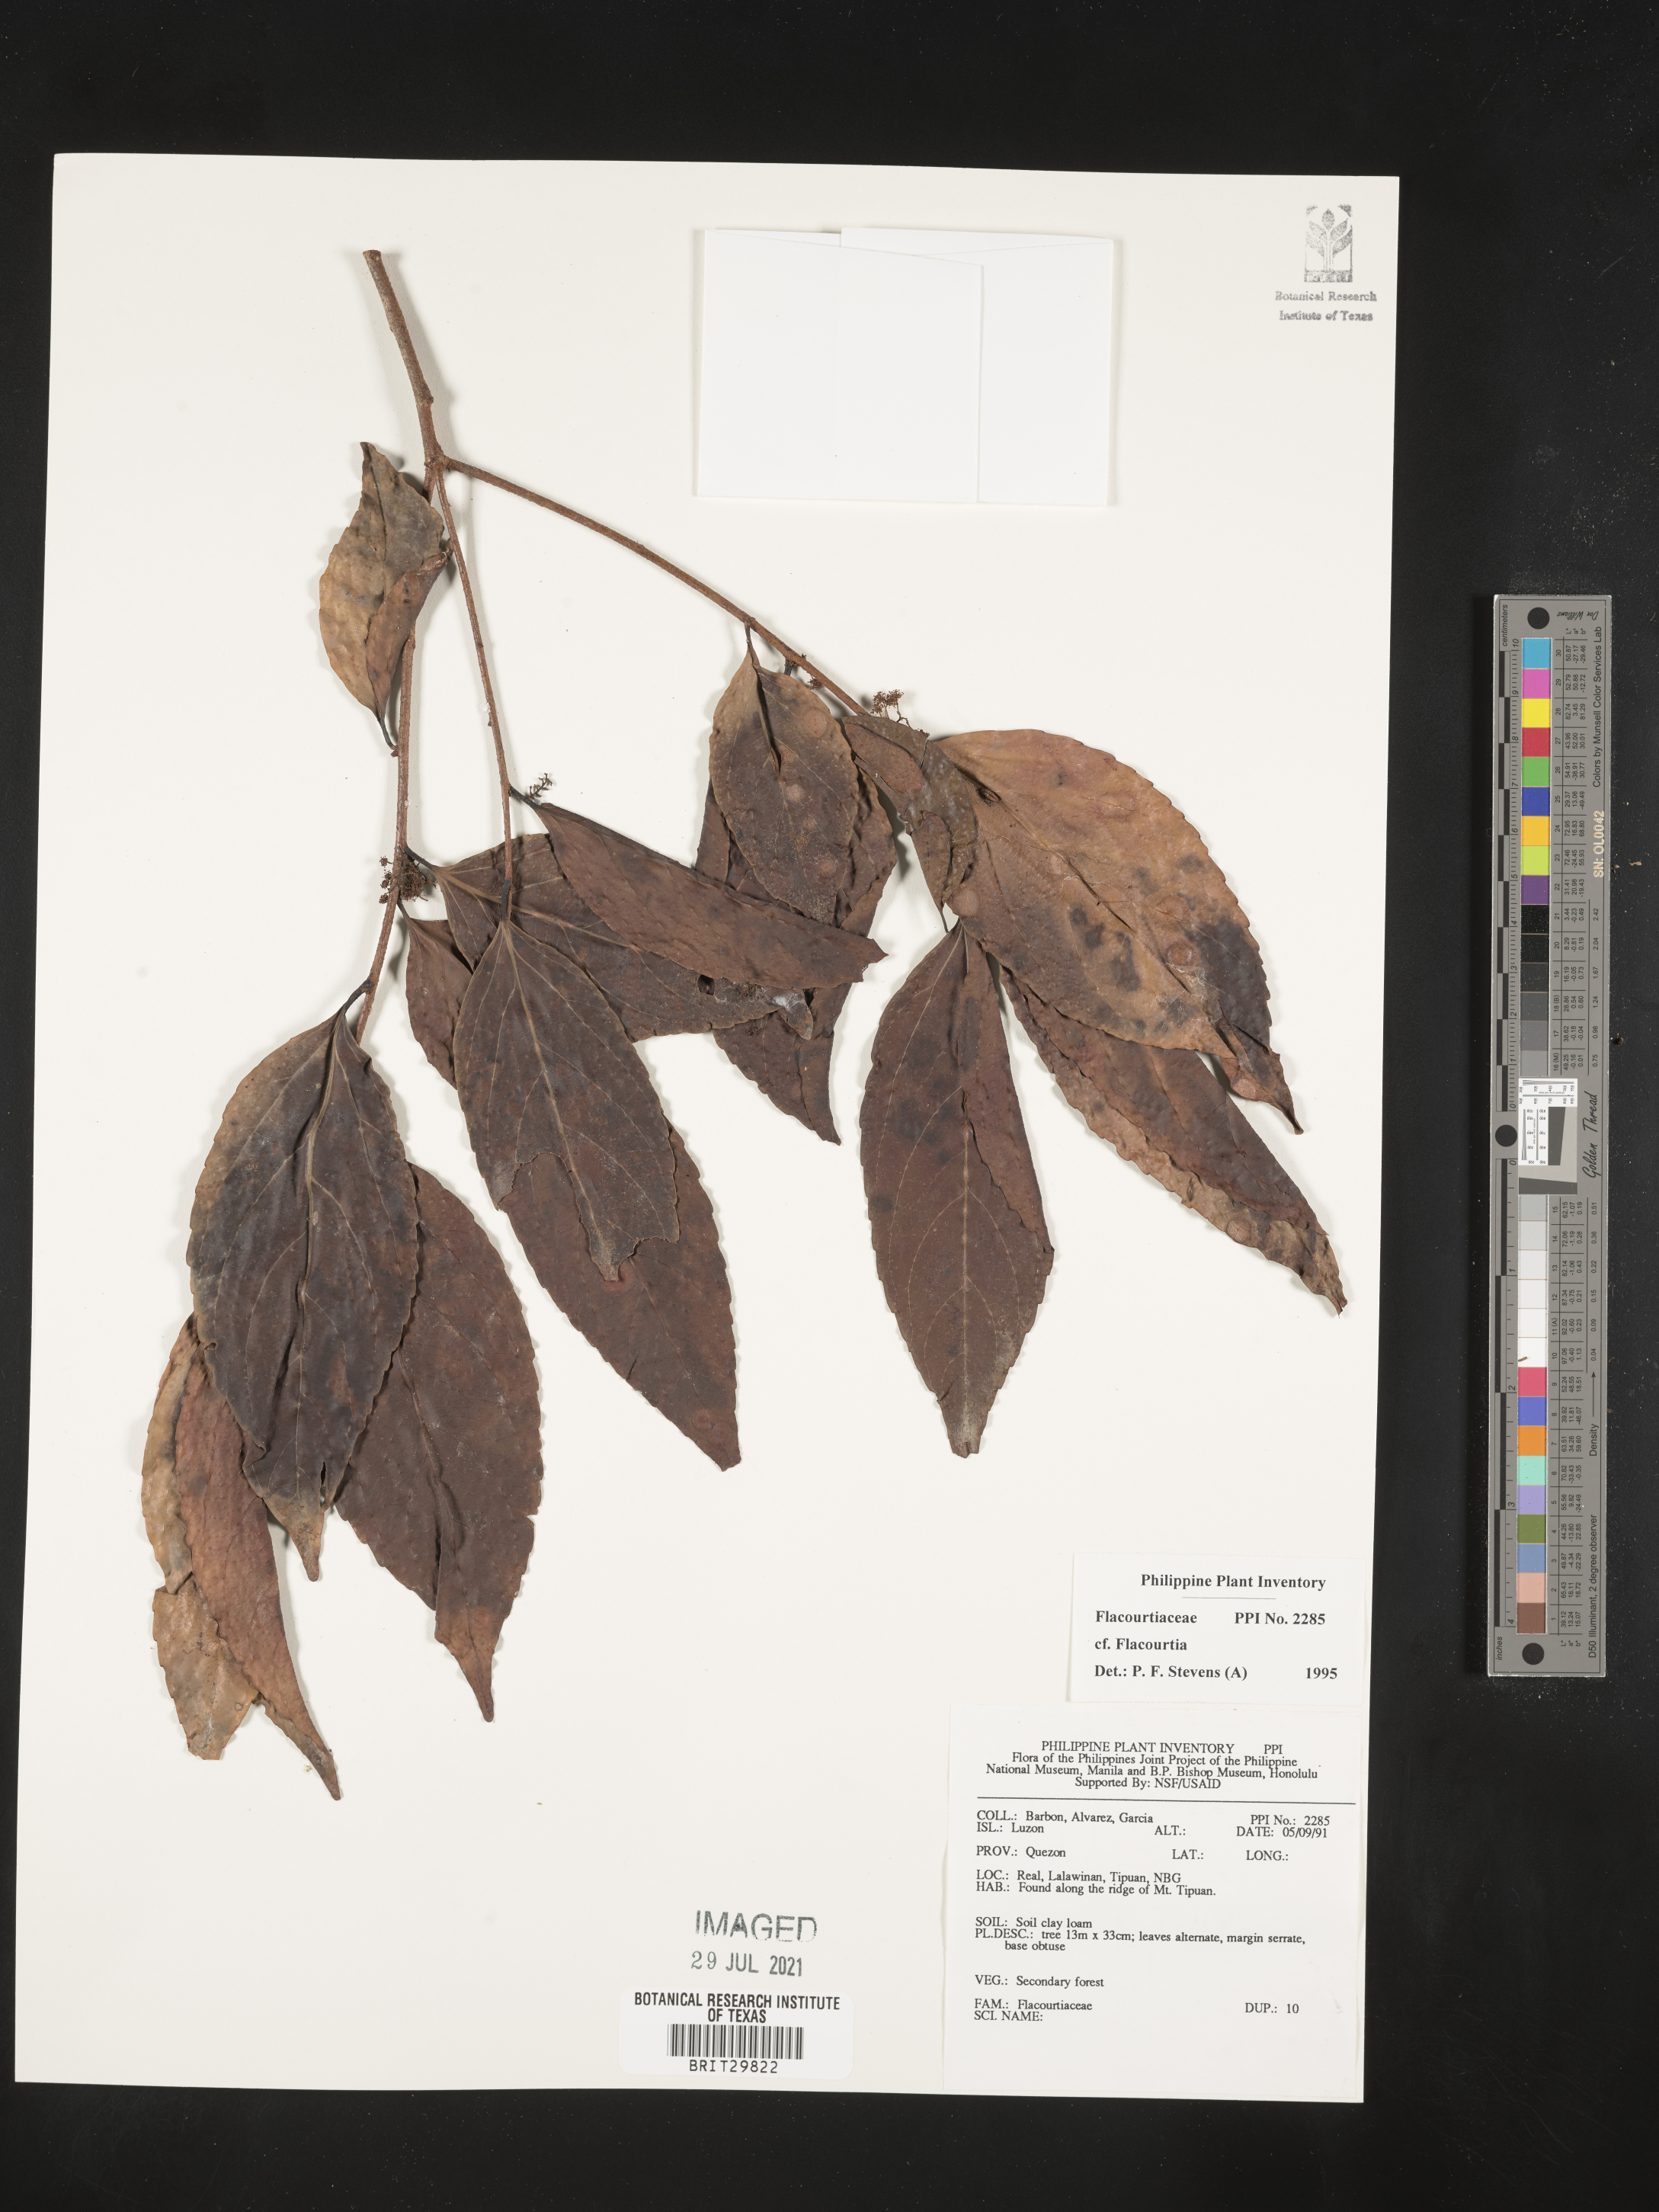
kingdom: Plantae
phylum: Tracheophyta
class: Magnoliopsida
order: Malpighiales
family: Salicaceae
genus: Flacourtia
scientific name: Flacourtia
